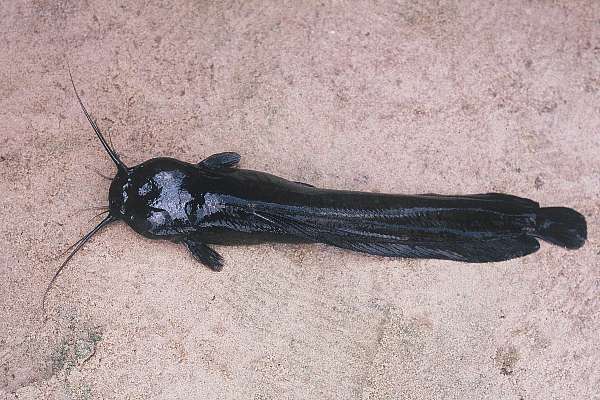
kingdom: Animalia
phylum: Chordata
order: Siluriformes
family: Clariidae
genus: Clariallabes
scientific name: Clariallabes platyprosopos
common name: Broadhead catfish
